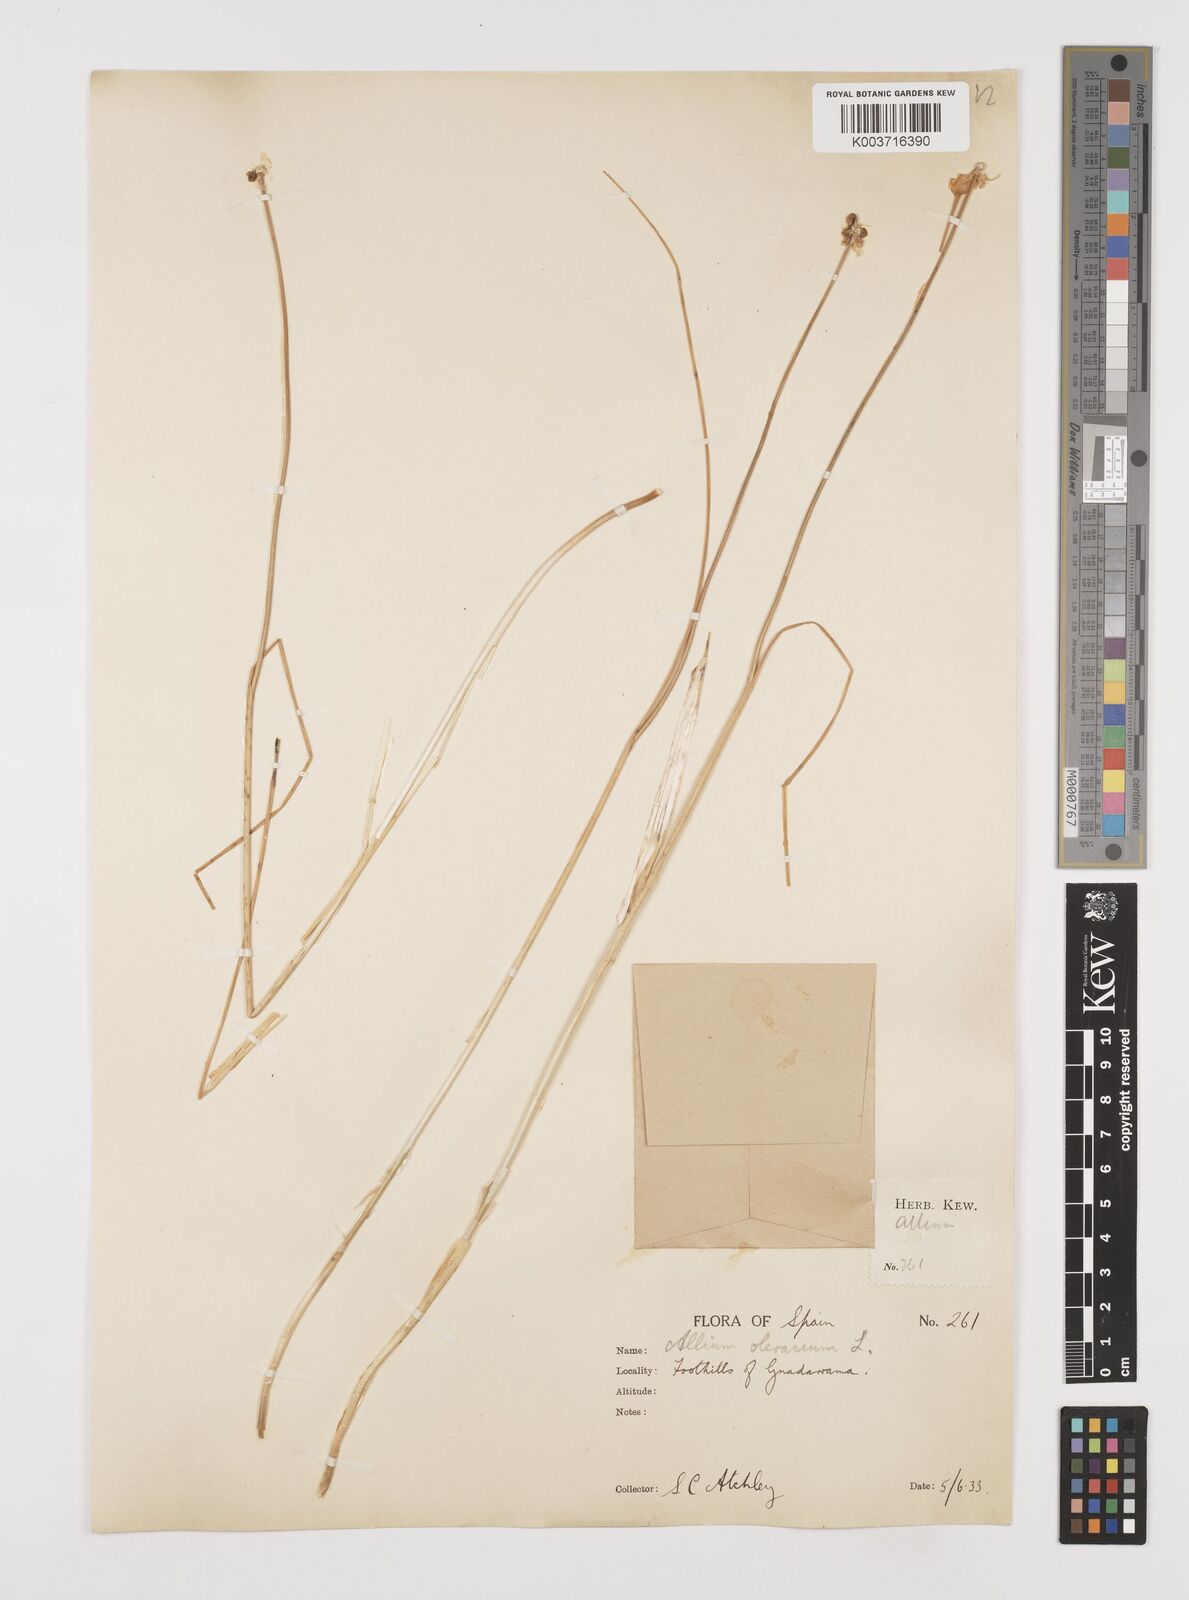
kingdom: Plantae
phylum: Tracheophyta
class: Liliopsida
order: Asparagales
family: Amaryllidaceae
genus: Allium
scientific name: Allium oleraceum
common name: Field garlic
